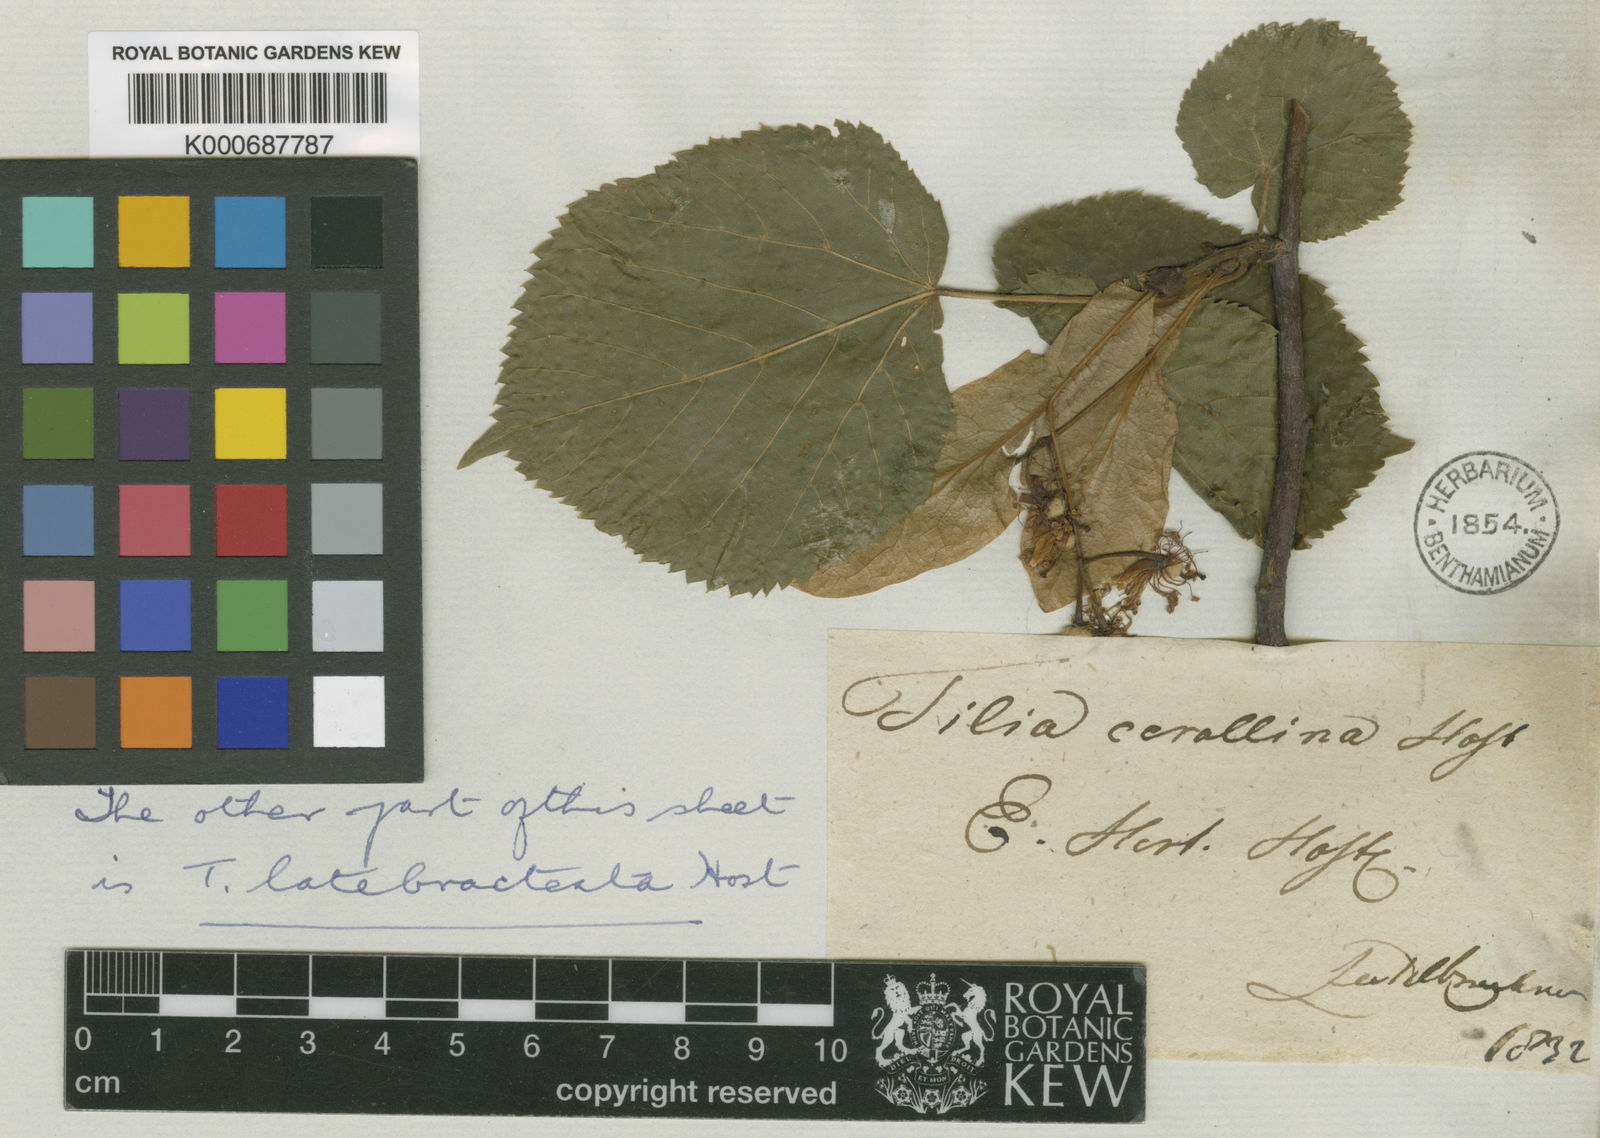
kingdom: Plantae
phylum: Tracheophyta
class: Magnoliopsida
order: Malvales
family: Malvaceae
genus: Tilia
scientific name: Tilia platyphyllos
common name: Large-leaved lime
